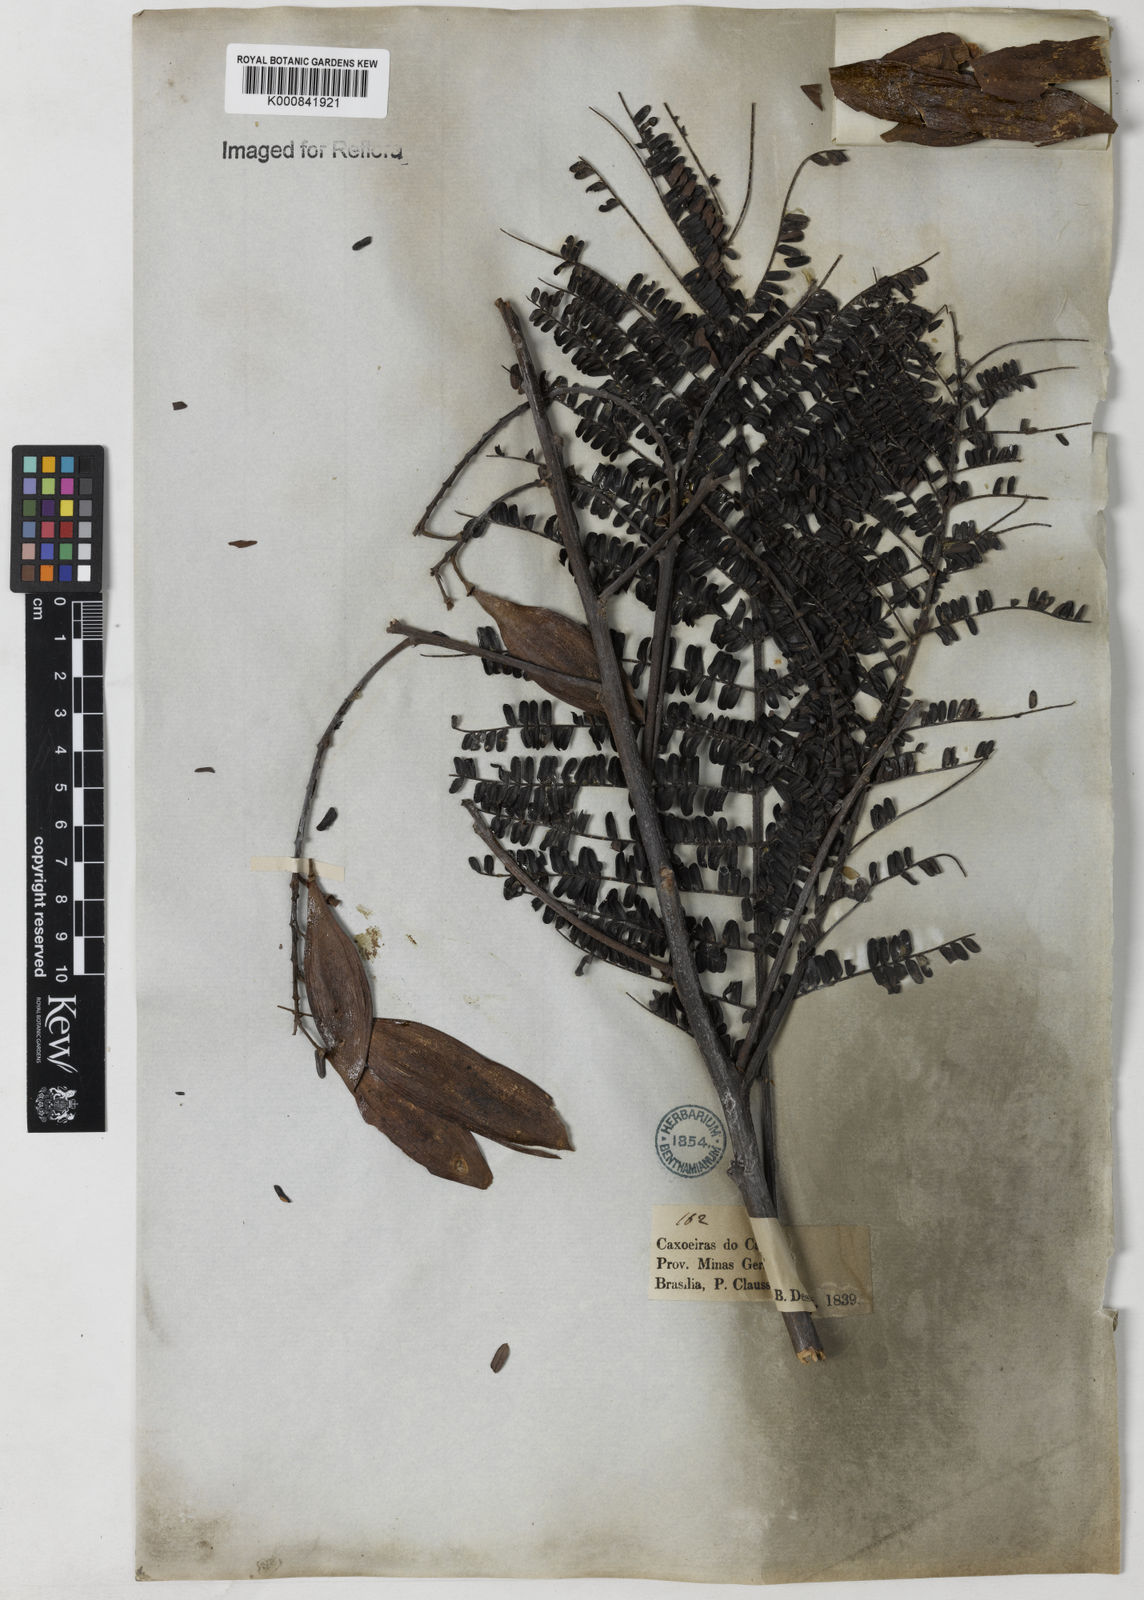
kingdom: Plantae
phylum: Tracheophyta
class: Magnoliopsida
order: Fabales
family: Fabaceae
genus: Peltophorum
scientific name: Peltophorum dubium
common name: Horsebush
